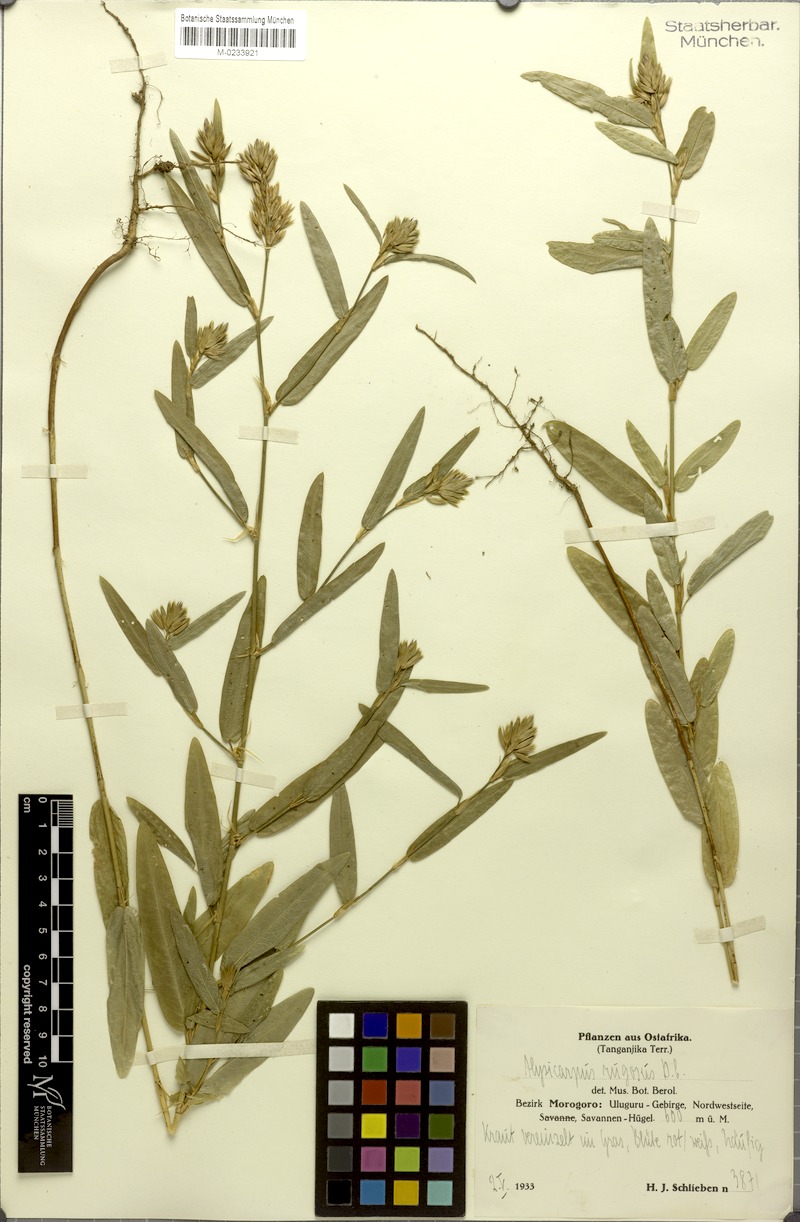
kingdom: Plantae
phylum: Tracheophyta
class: Magnoliopsida
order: Fabales
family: Fabaceae
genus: Alysicarpus
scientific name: Alysicarpus rugosus
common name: Red moneywort
